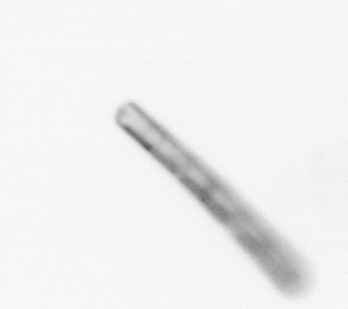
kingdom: Chromista
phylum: Ochrophyta
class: Bacillariophyceae
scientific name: Bacillariophyceae
